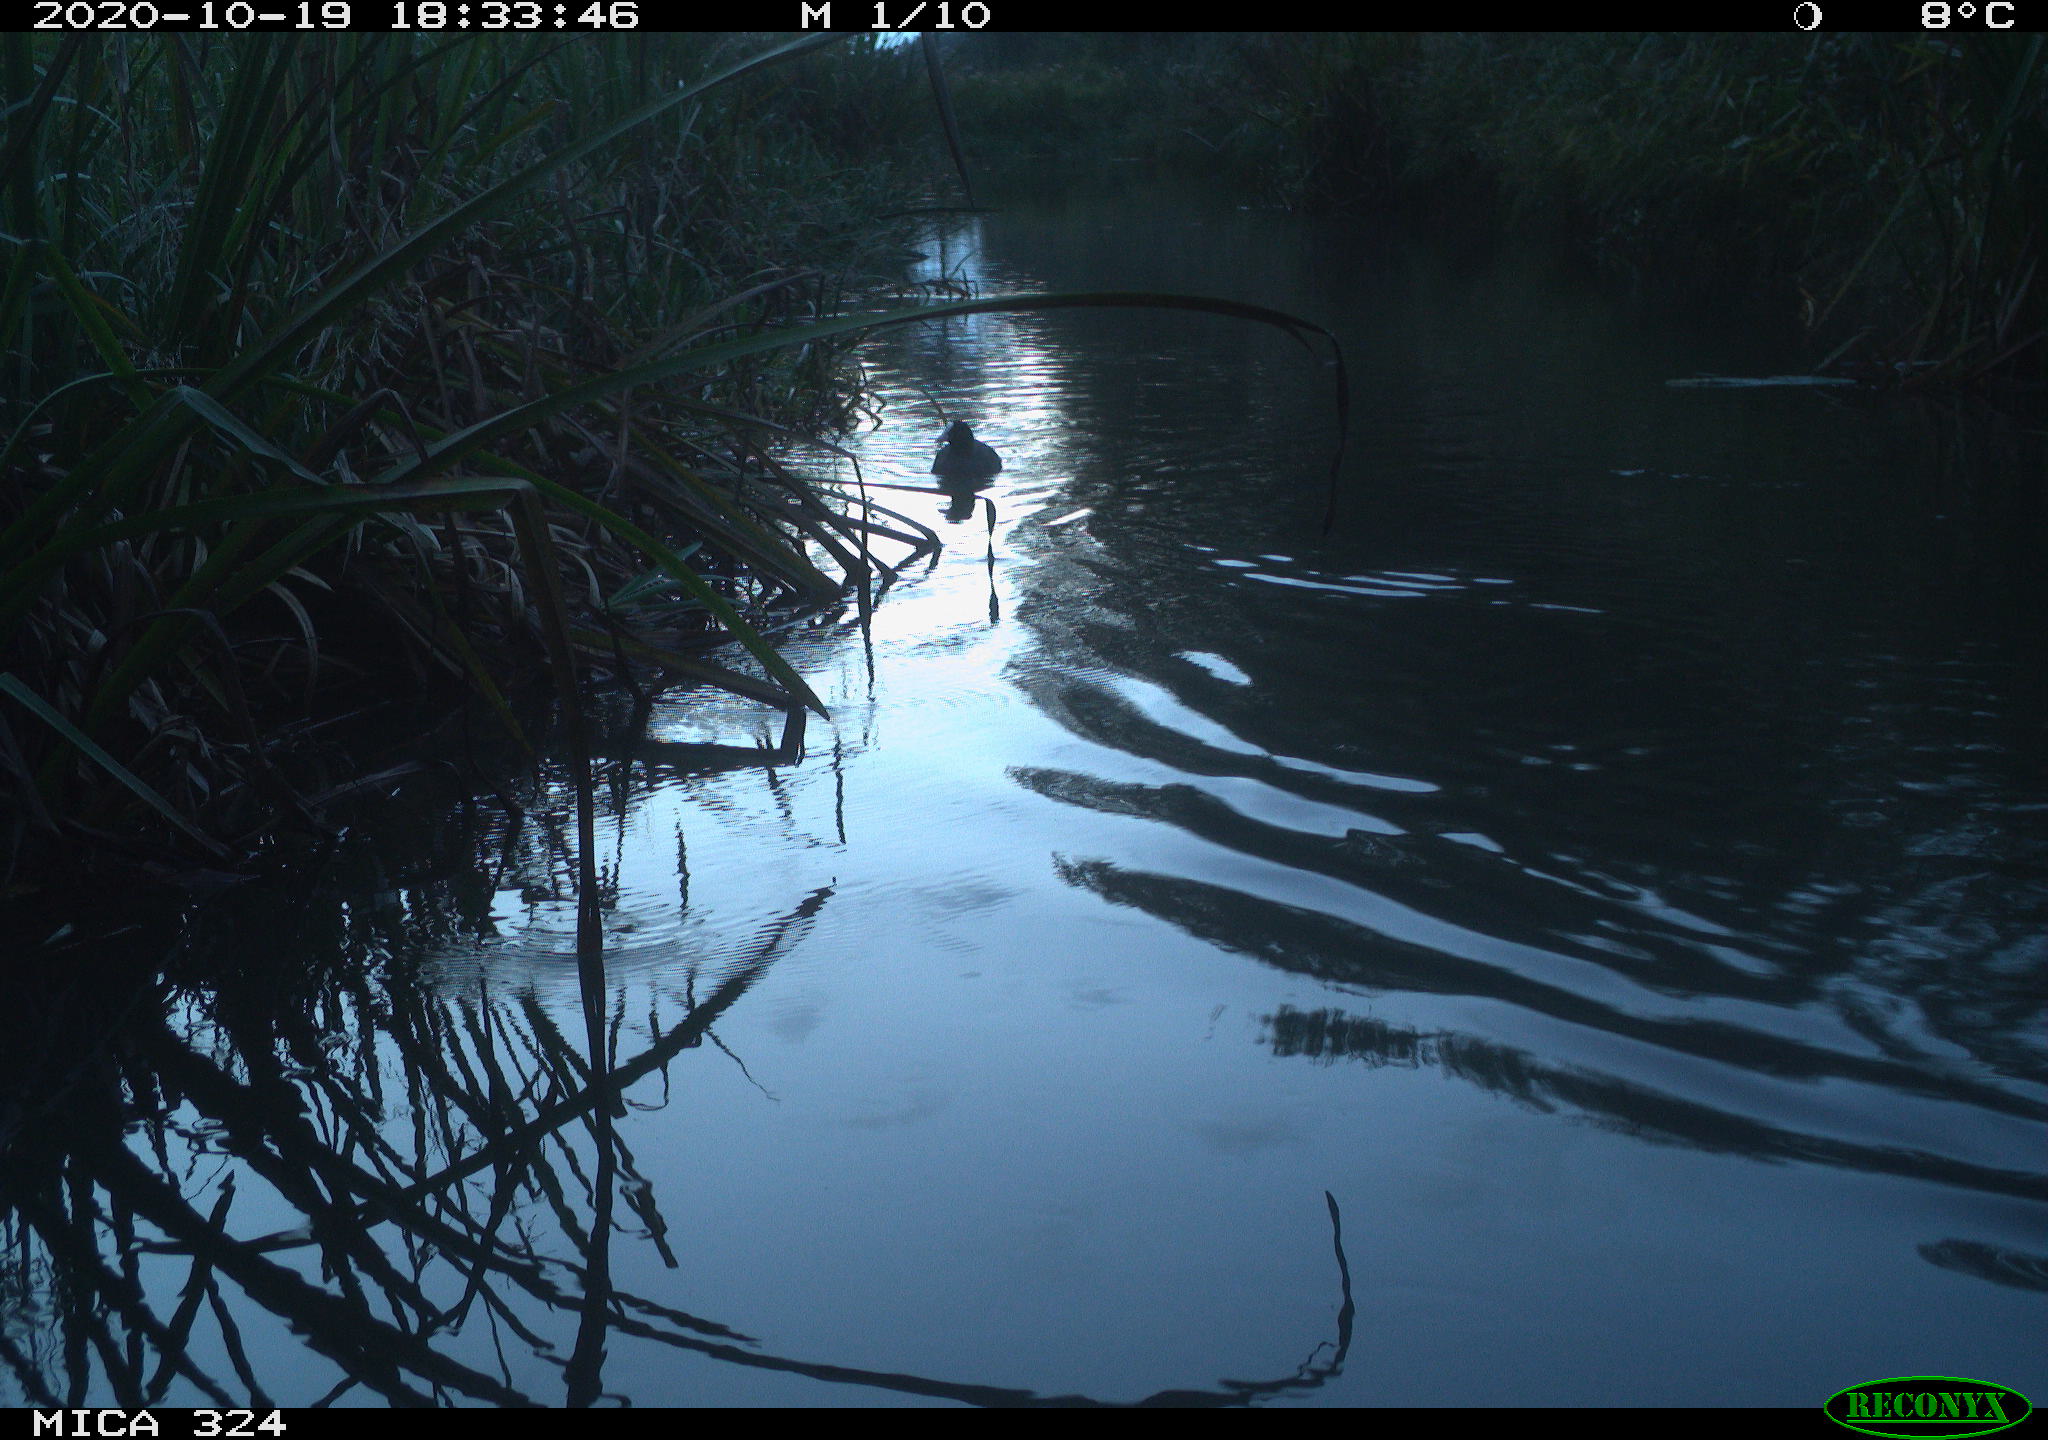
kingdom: Animalia
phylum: Chordata
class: Aves
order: Gruiformes
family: Rallidae
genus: Fulica
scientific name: Fulica atra
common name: Eurasian coot
